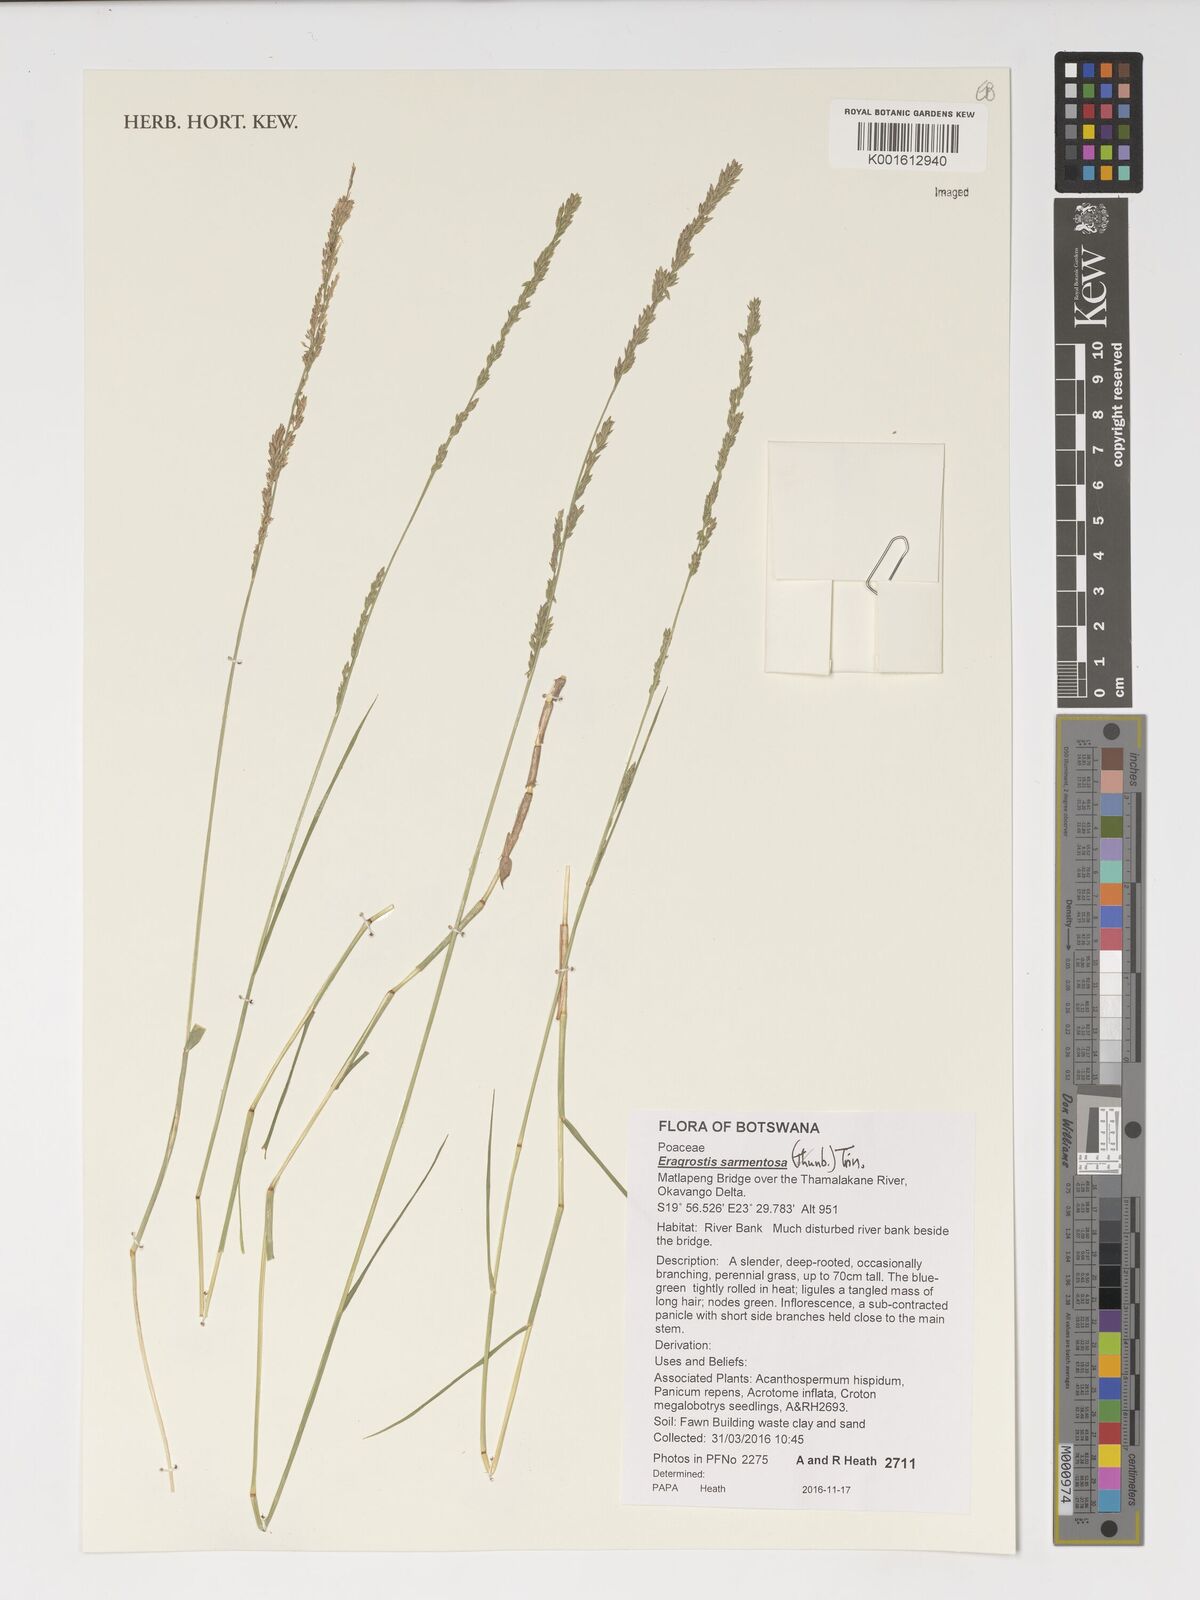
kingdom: Plantae
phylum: Tracheophyta
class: Liliopsida
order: Poales
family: Poaceae
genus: Eragrostis
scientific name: Eragrostis sarmentosa
